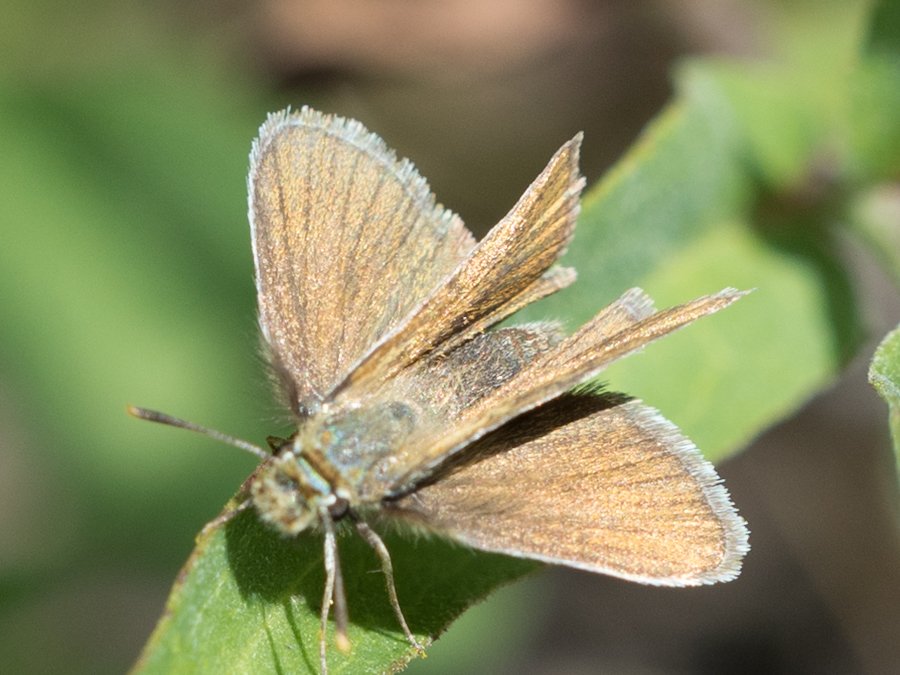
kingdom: Animalia
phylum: Arthropoda
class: Insecta
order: Lepidoptera
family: Hesperiidae
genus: Oarisma
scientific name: Oarisma garita
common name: Garita Skipperling
